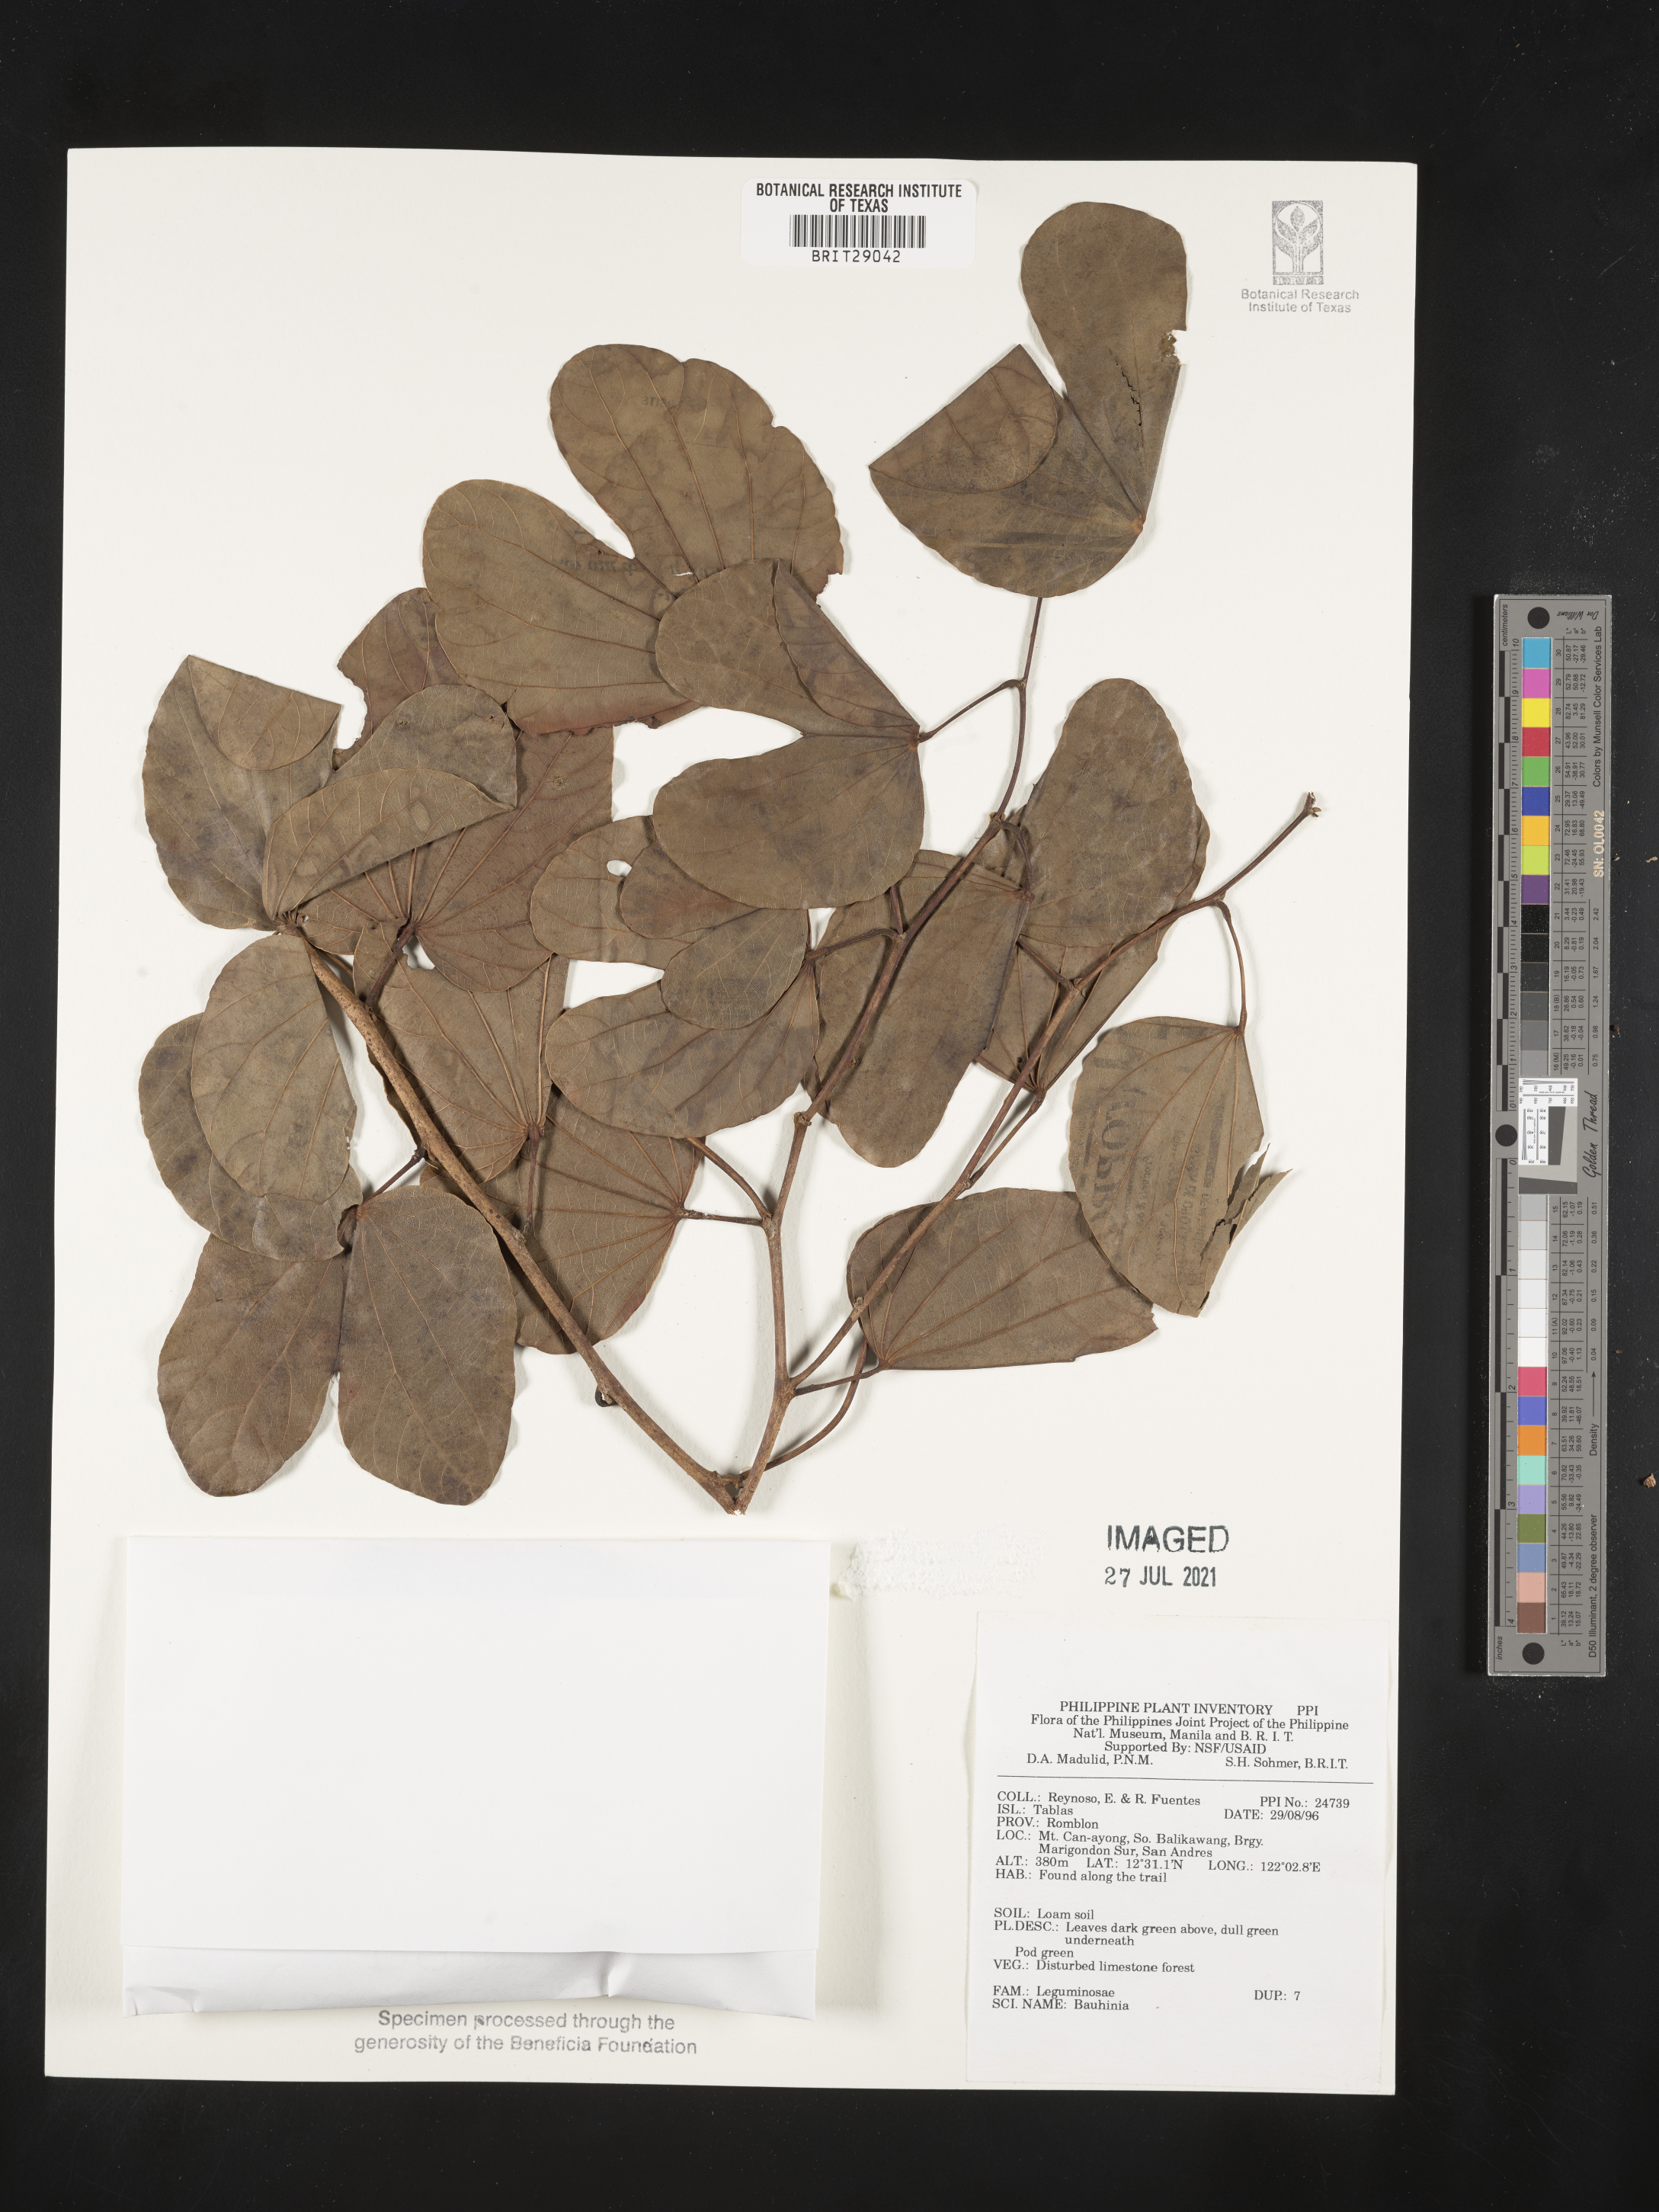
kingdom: Plantae
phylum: Tracheophyta
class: Magnoliopsida
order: Fabales
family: Fabaceae
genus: Bauhinia
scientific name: Bauhinia
